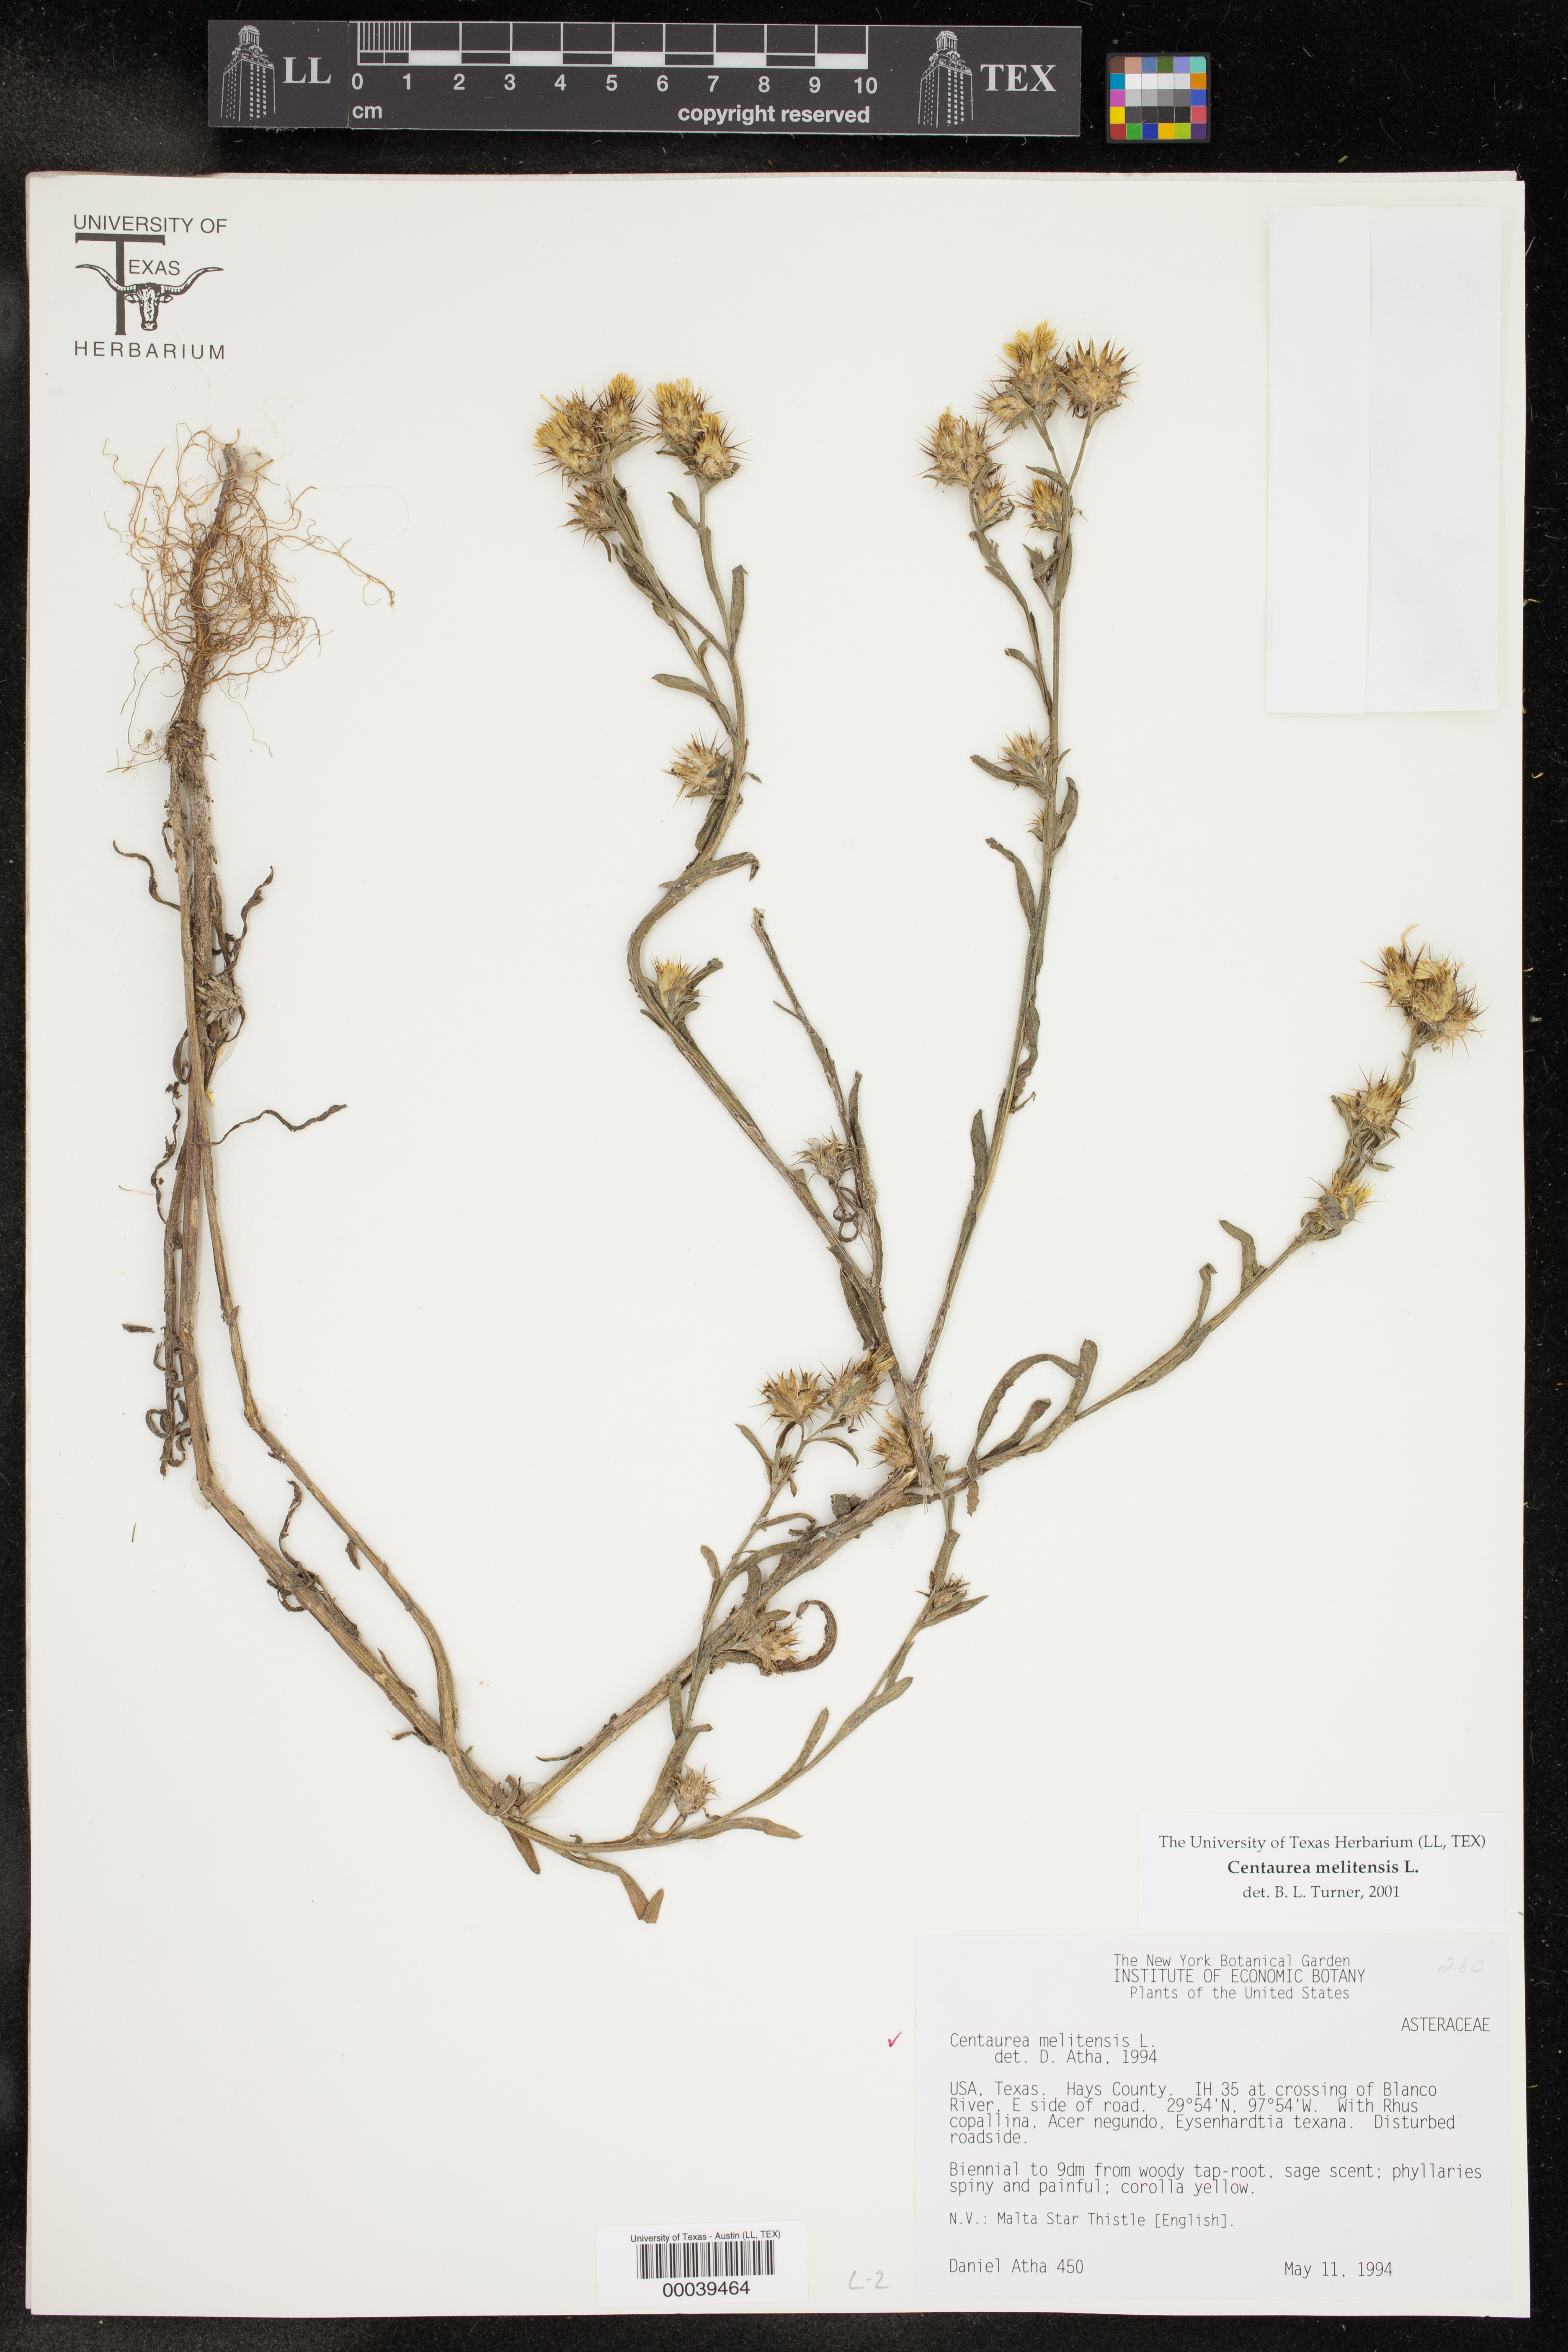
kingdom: Plantae
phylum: Tracheophyta
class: Magnoliopsida
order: Asterales
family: Asteraceae
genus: Centaurea
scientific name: Centaurea melitensis
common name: Maltese star-thistle
